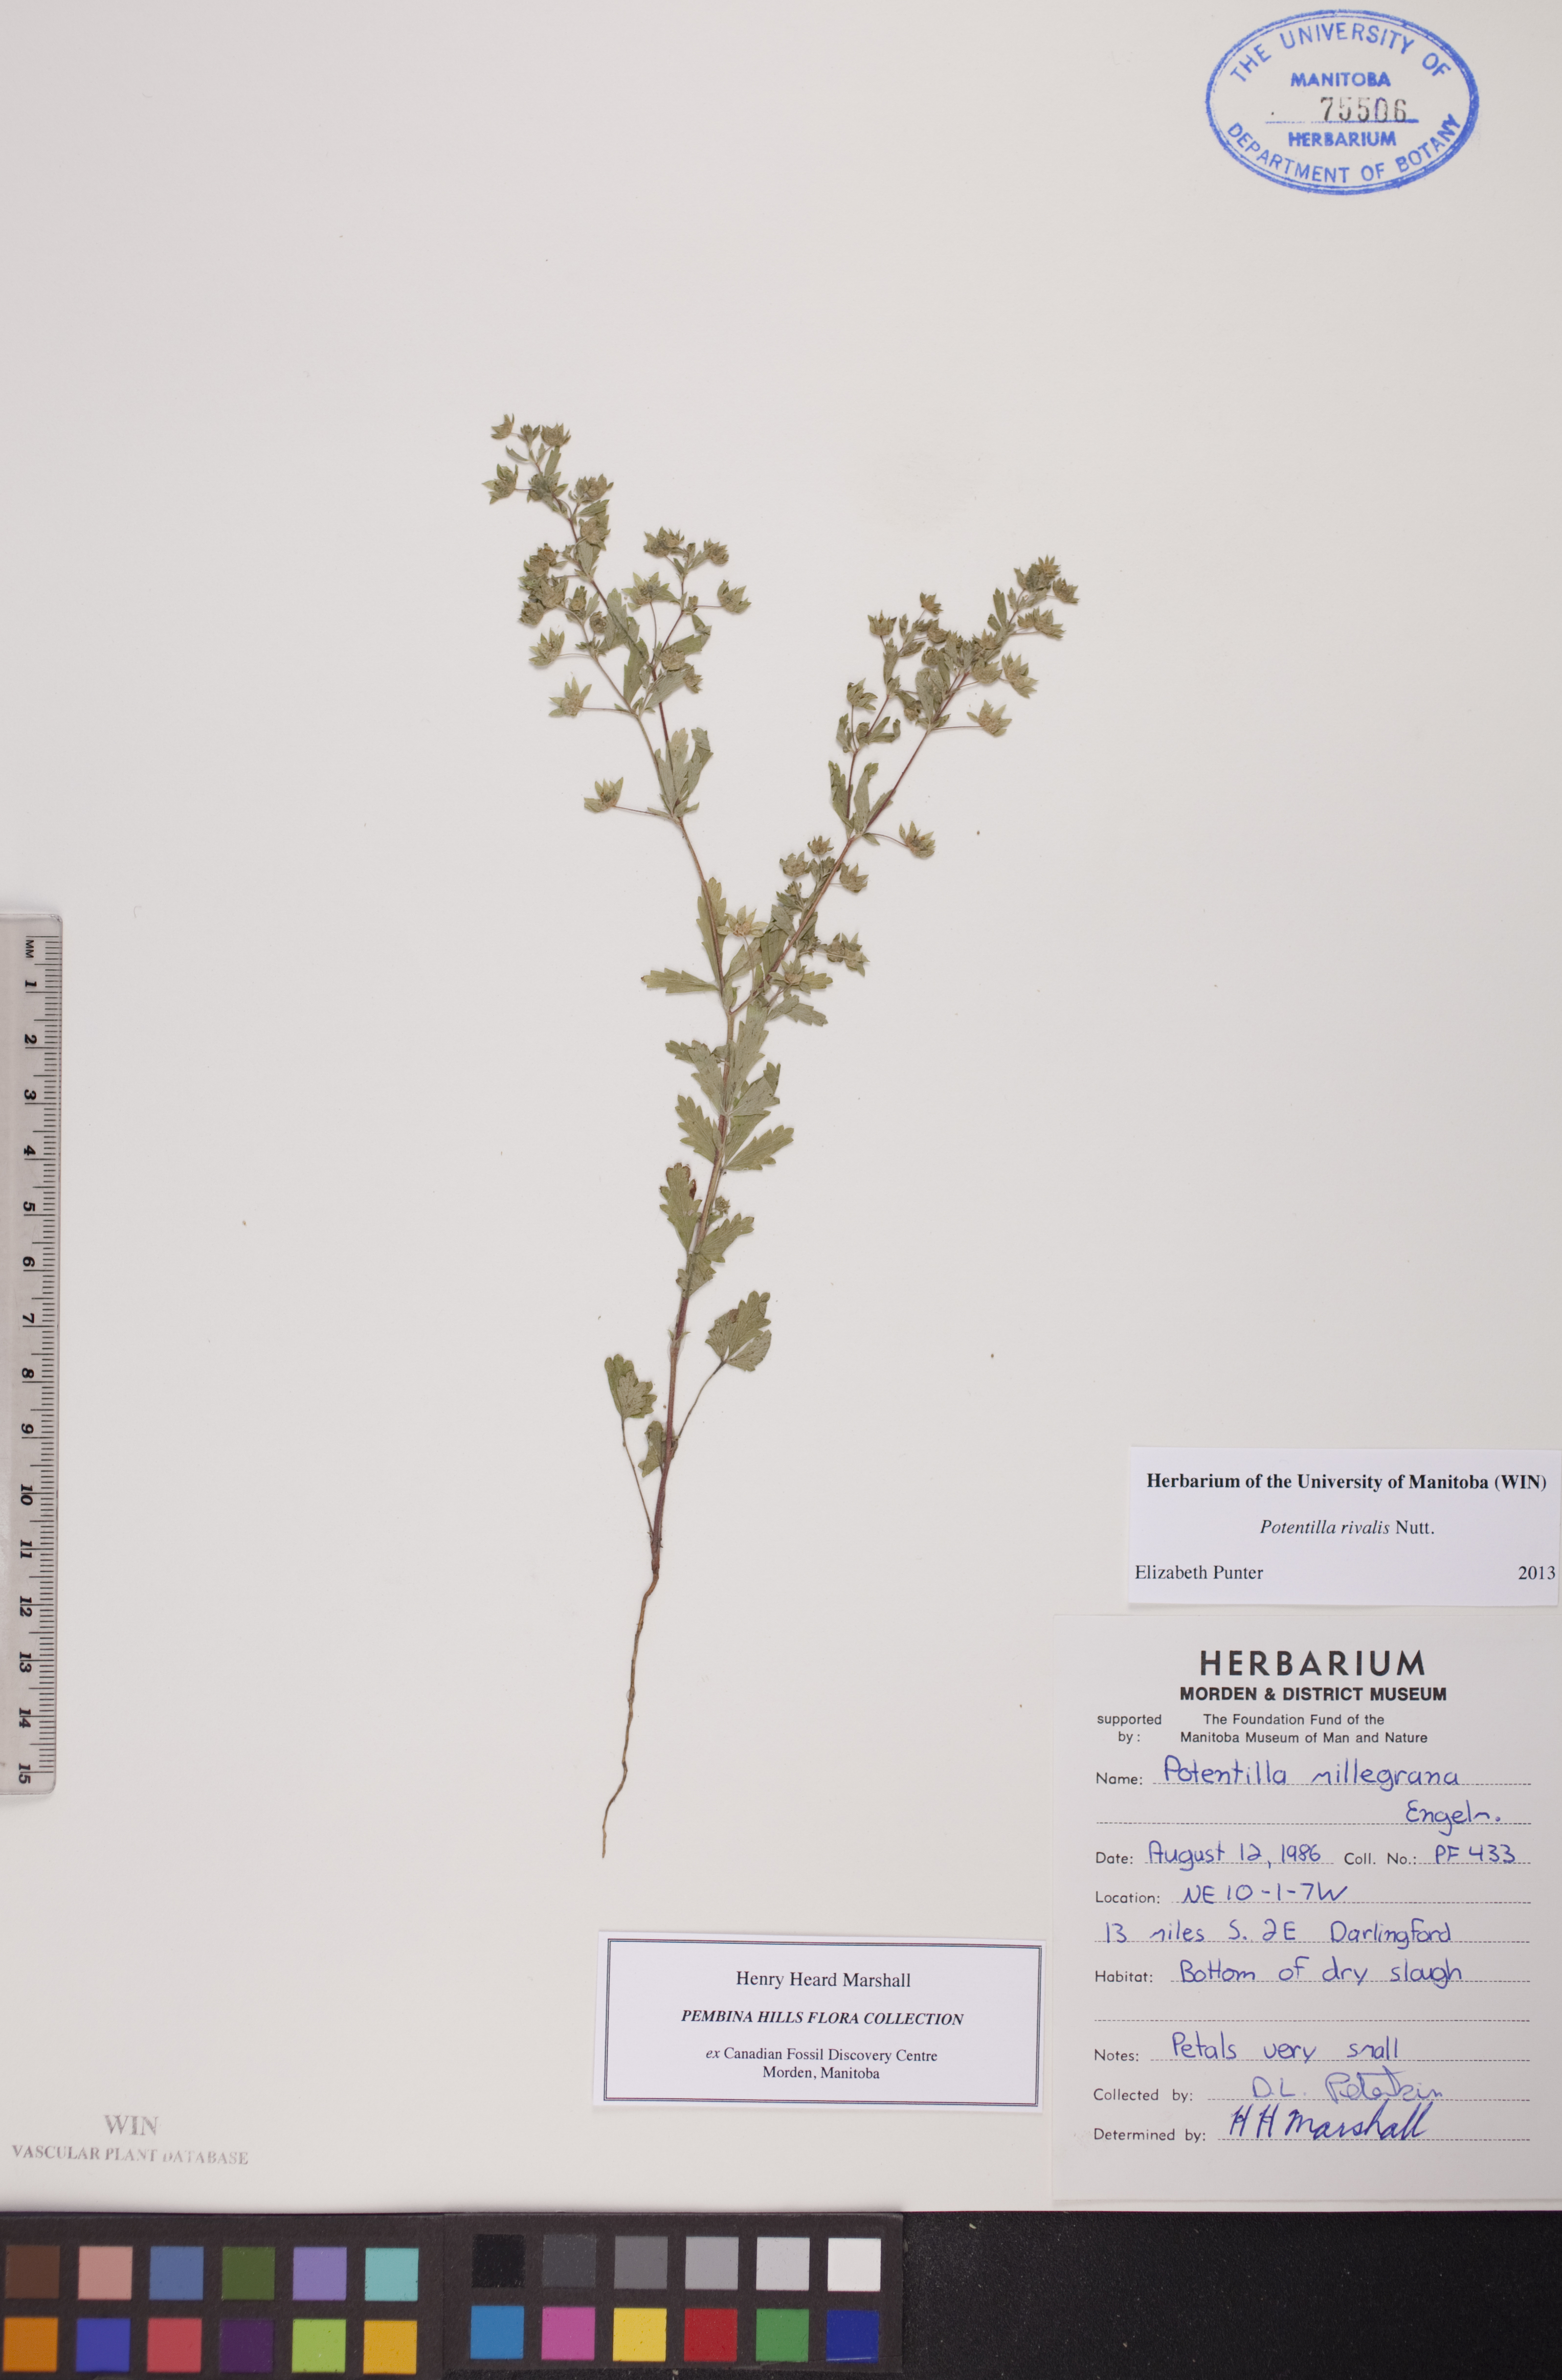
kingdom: Plantae
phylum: Tracheophyta
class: Magnoliopsida
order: Rosales
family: Rosaceae
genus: Potentilla
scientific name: Potentilla rivalis
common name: Brook cinquefoil
